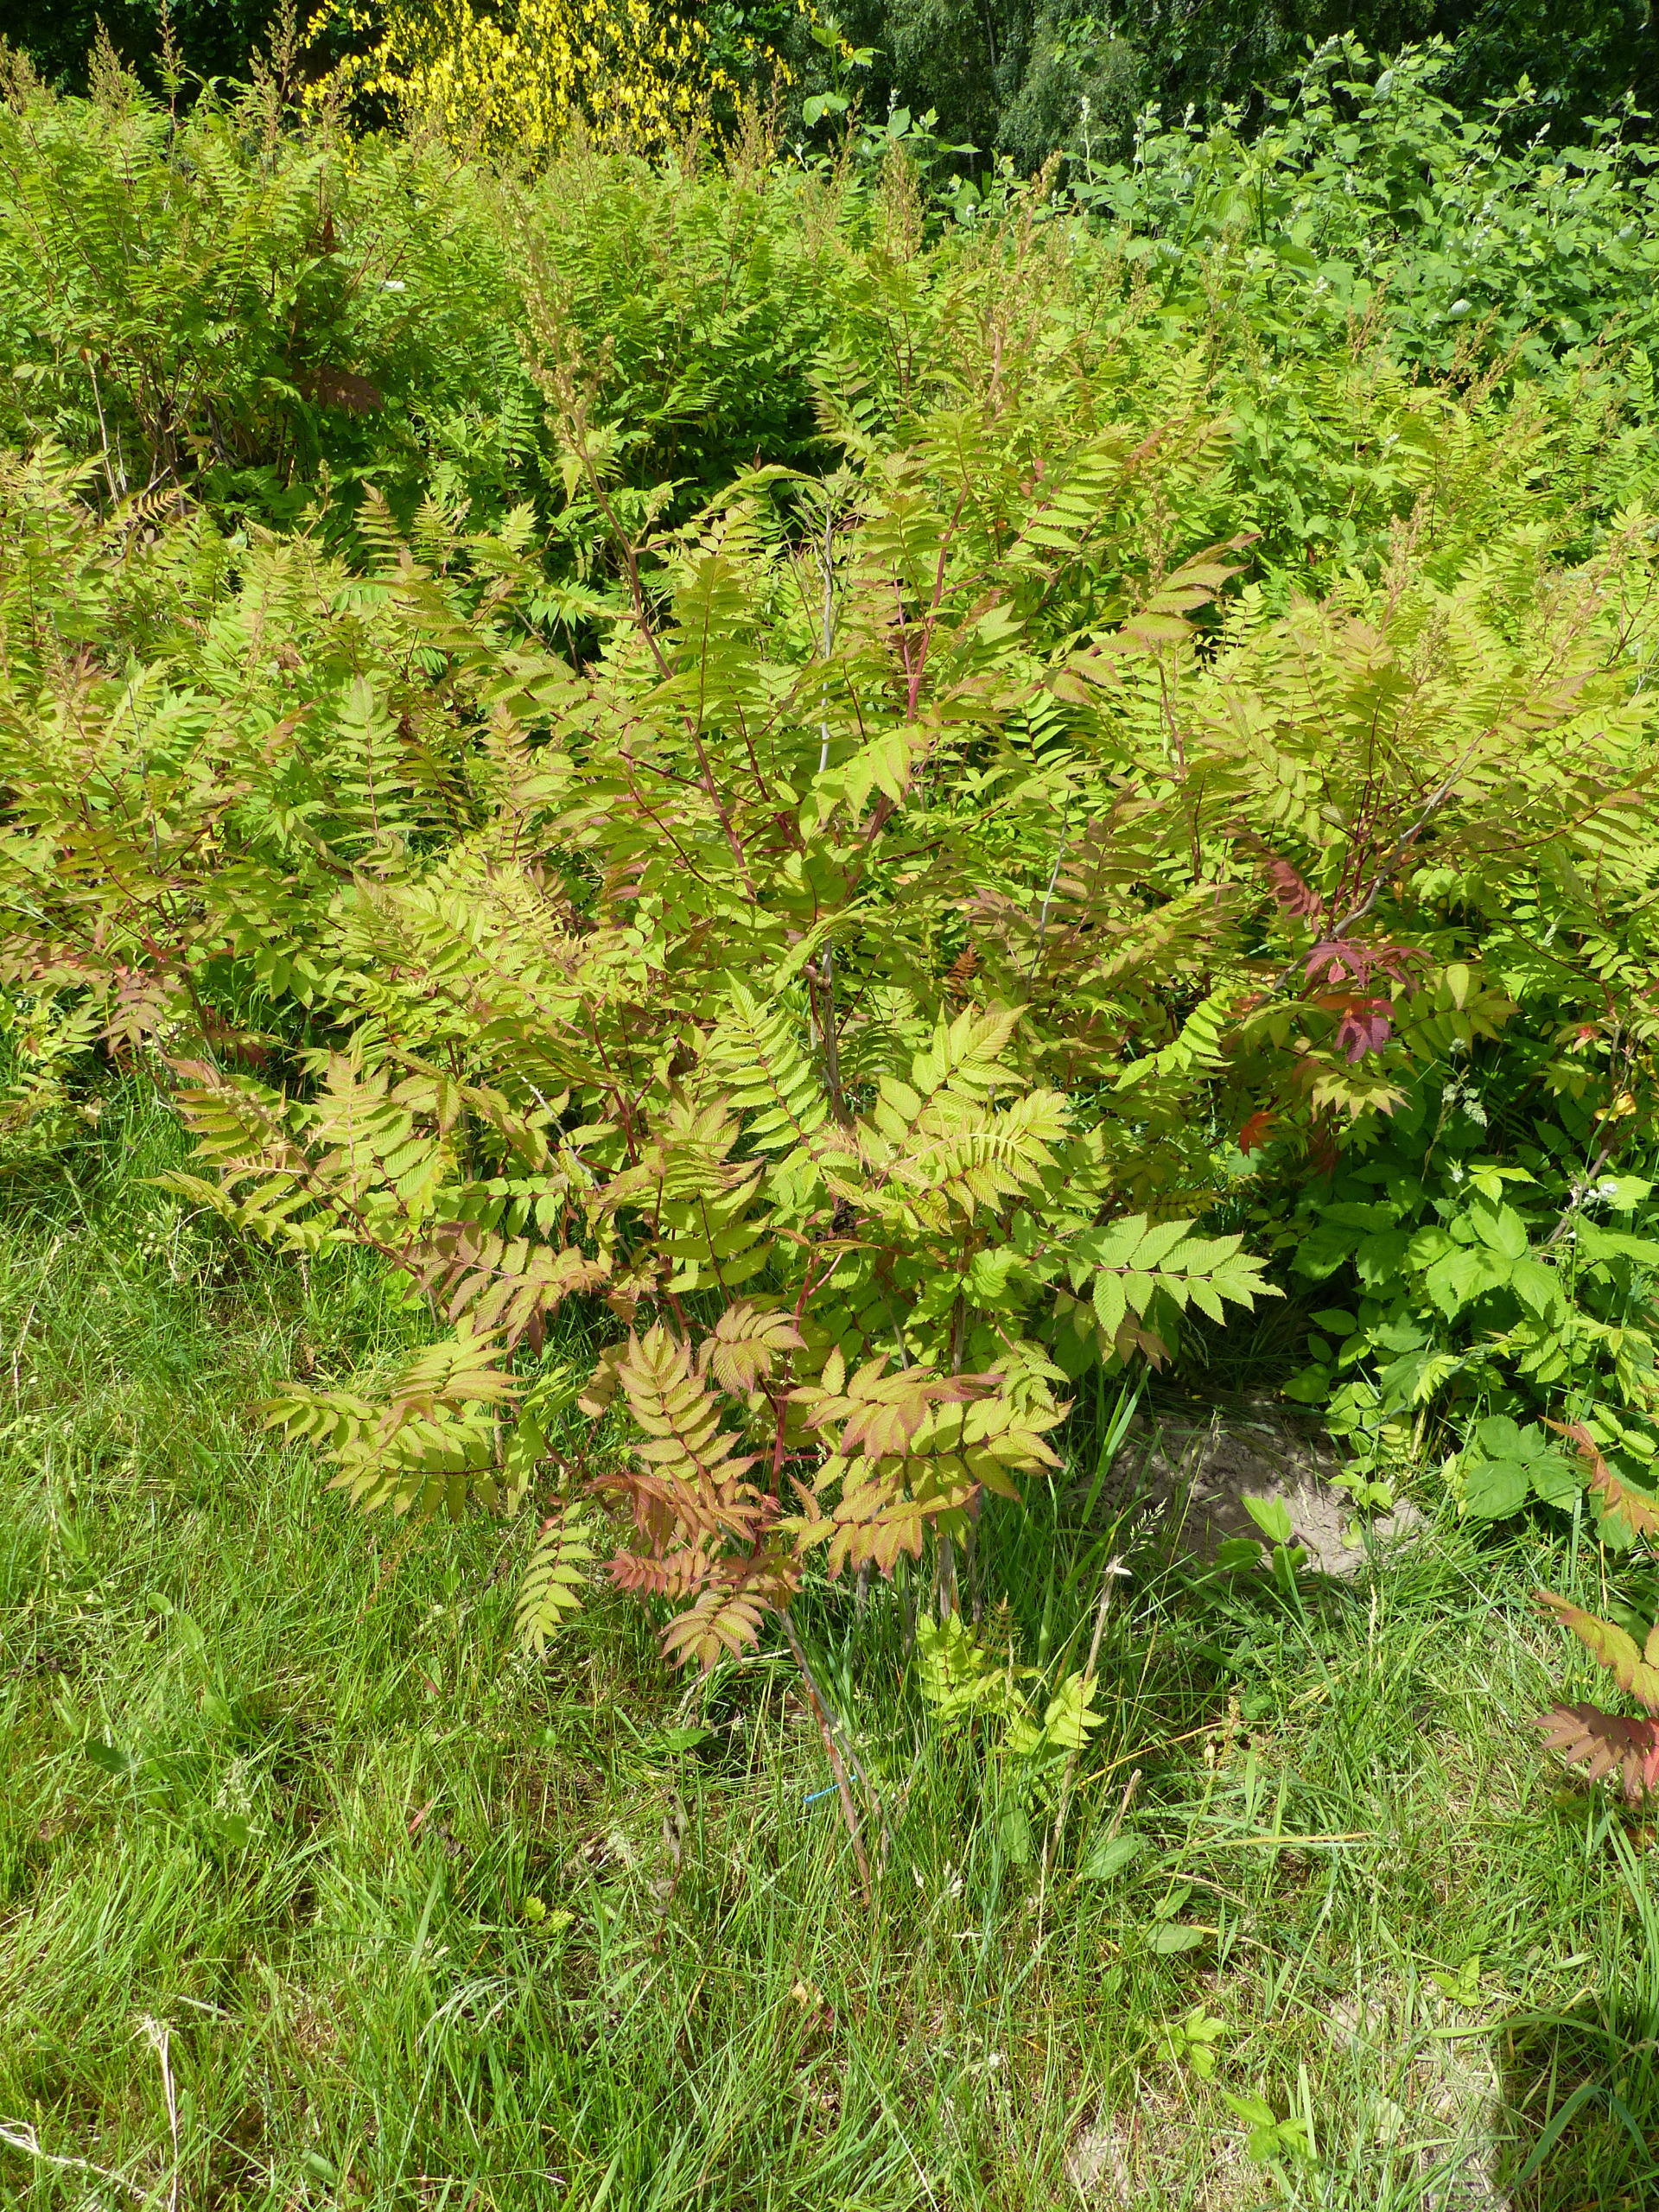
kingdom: Plantae
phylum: Tracheophyta
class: Magnoliopsida
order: Rosales
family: Rosaceae
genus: Sorbaria
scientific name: Sorbaria sorbifolia
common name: Tusindtop
